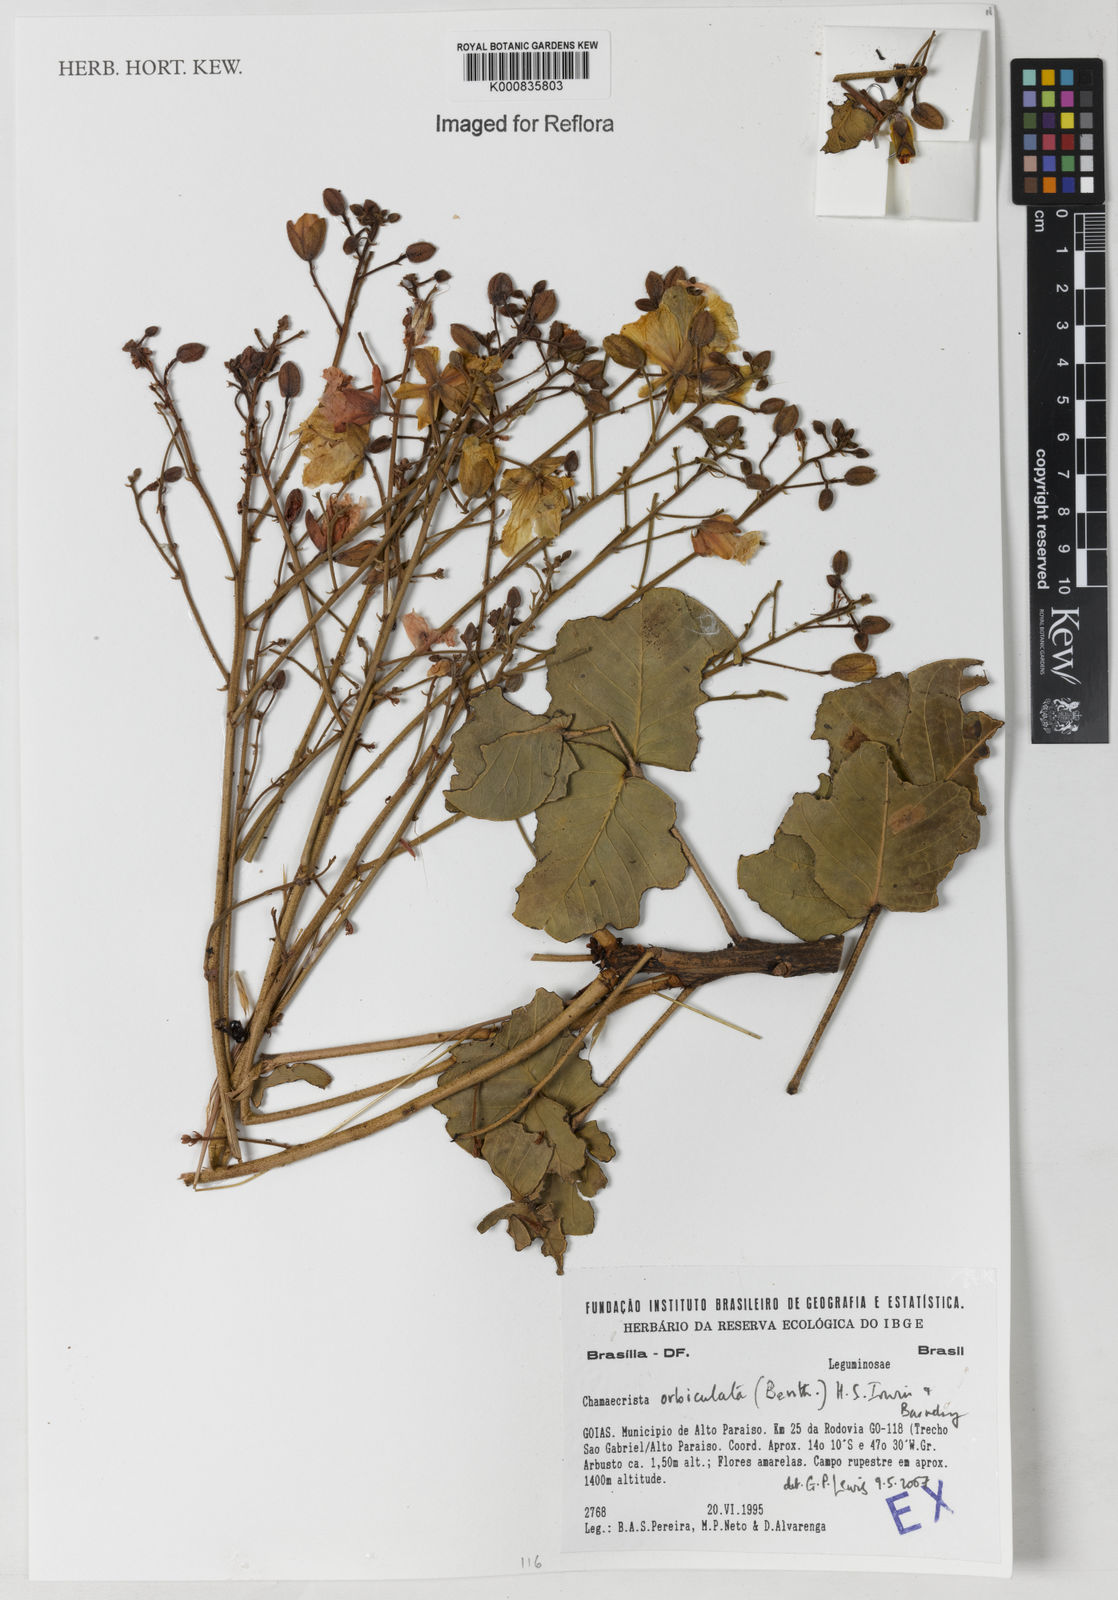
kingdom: Plantae
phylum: Tracheophyta
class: Magnoliopsida
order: Fabales
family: Fabaceae
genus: Chamaecrista
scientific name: Chamaecrista orbiculata
